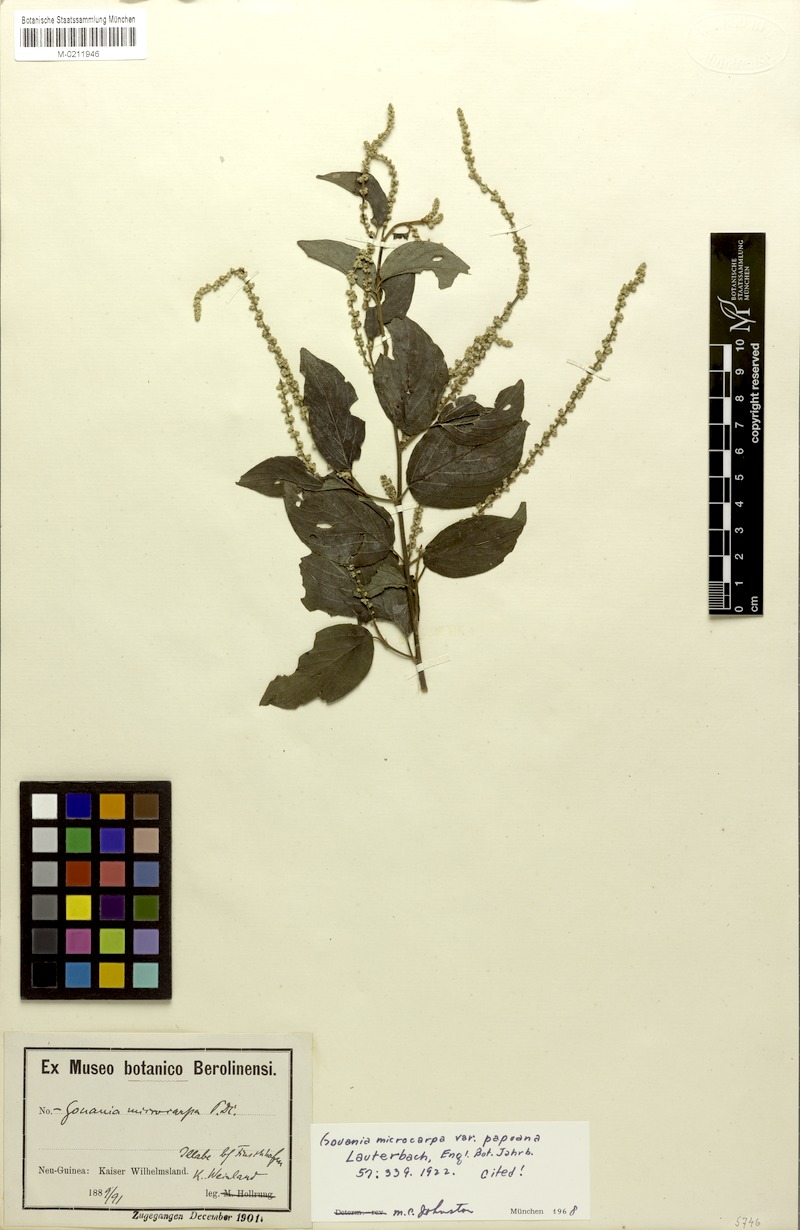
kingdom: Plantae
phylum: Tracheophyta
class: Magnoliopsida
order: Rosales
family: Rhamnaceae
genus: Gouania
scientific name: Gouania microcarpa
